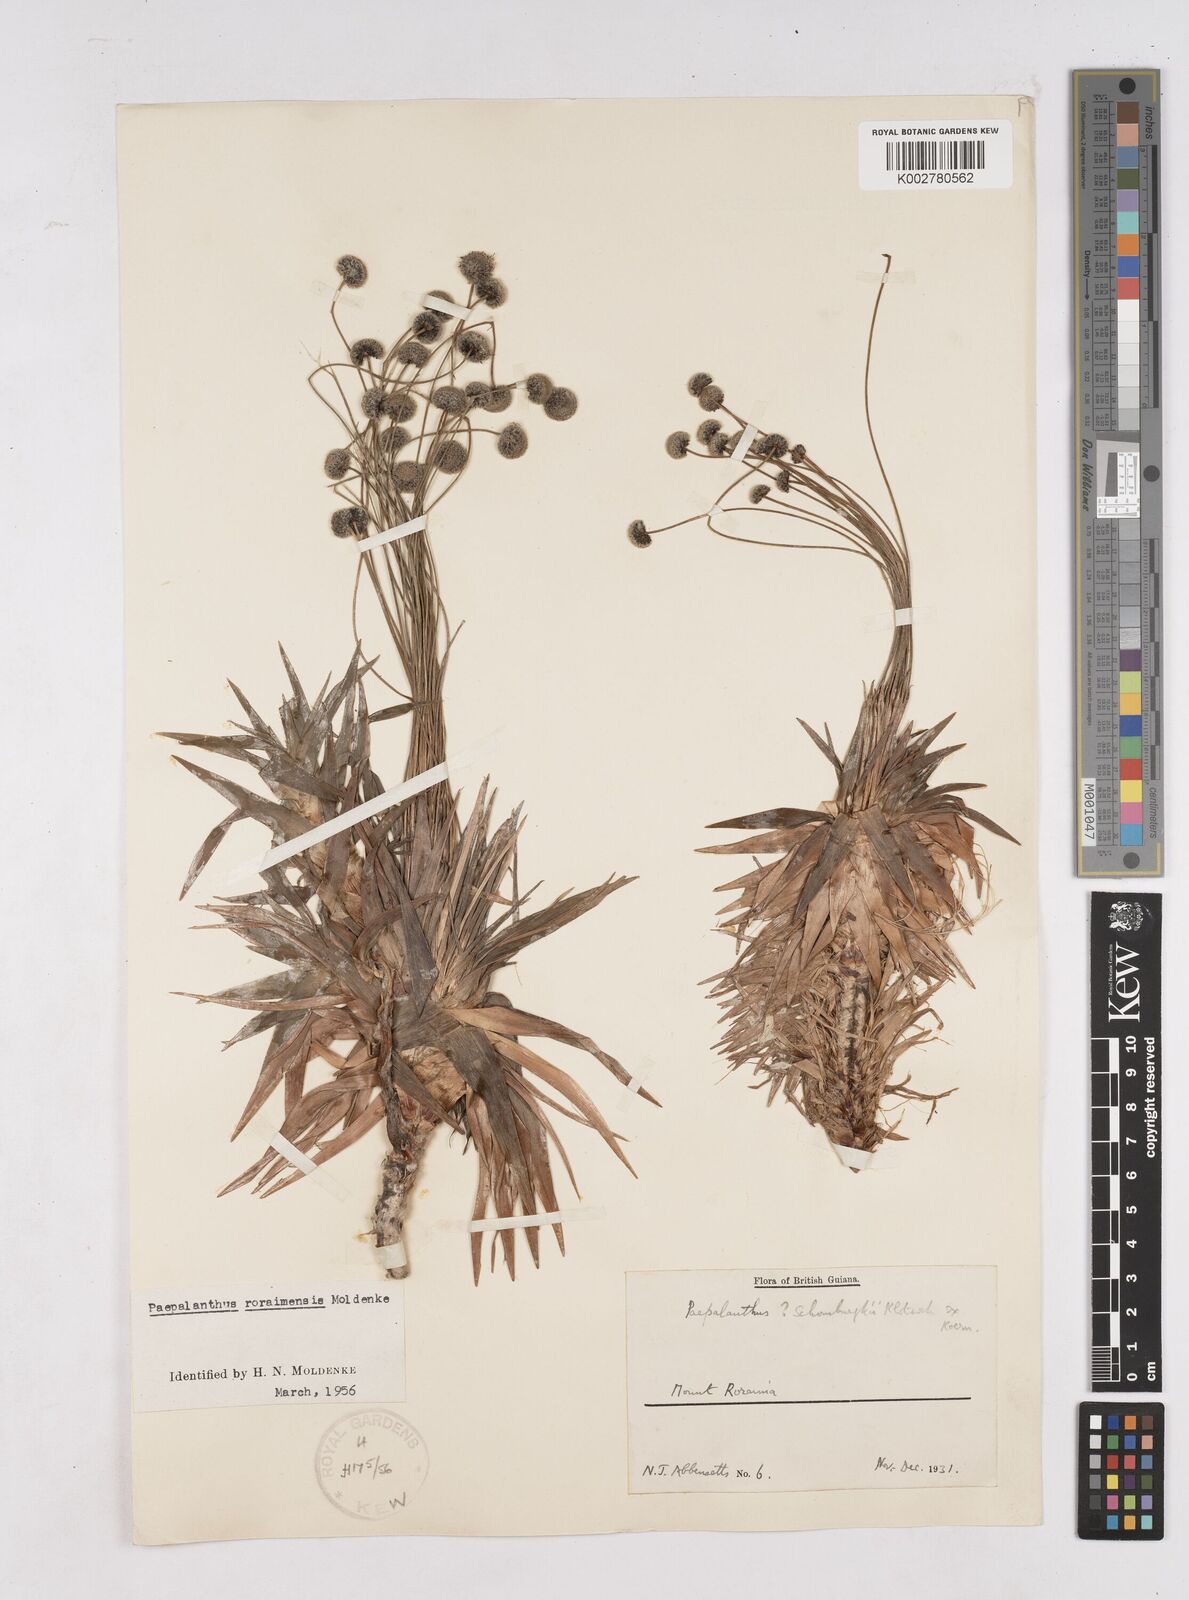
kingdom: Plantae
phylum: Tracheophyta
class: Liliopsida
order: Poales
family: Eriocaulaceae
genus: Paepalanthus
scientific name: Paepalanthus roraimensis
